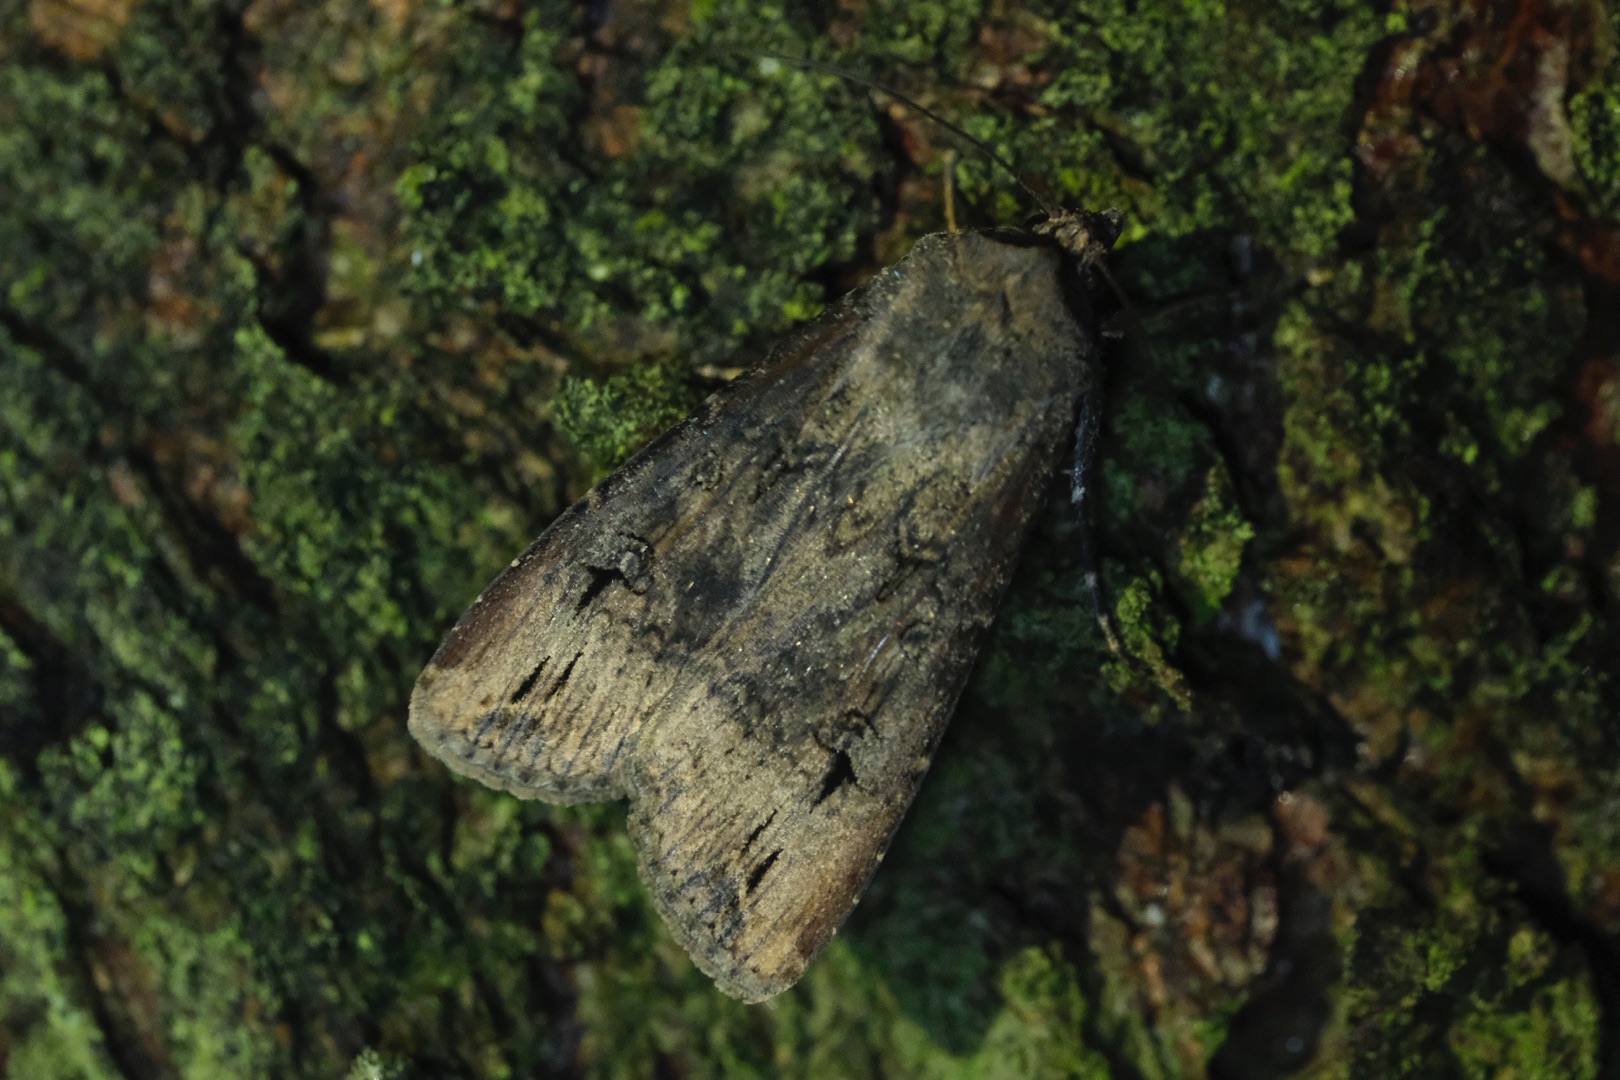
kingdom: Animalia
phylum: Arthropoda
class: Insecta
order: Lepidoptera
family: Noctuidae
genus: Agrotis
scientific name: Agrotis ipsilon
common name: Ypsilonugle
